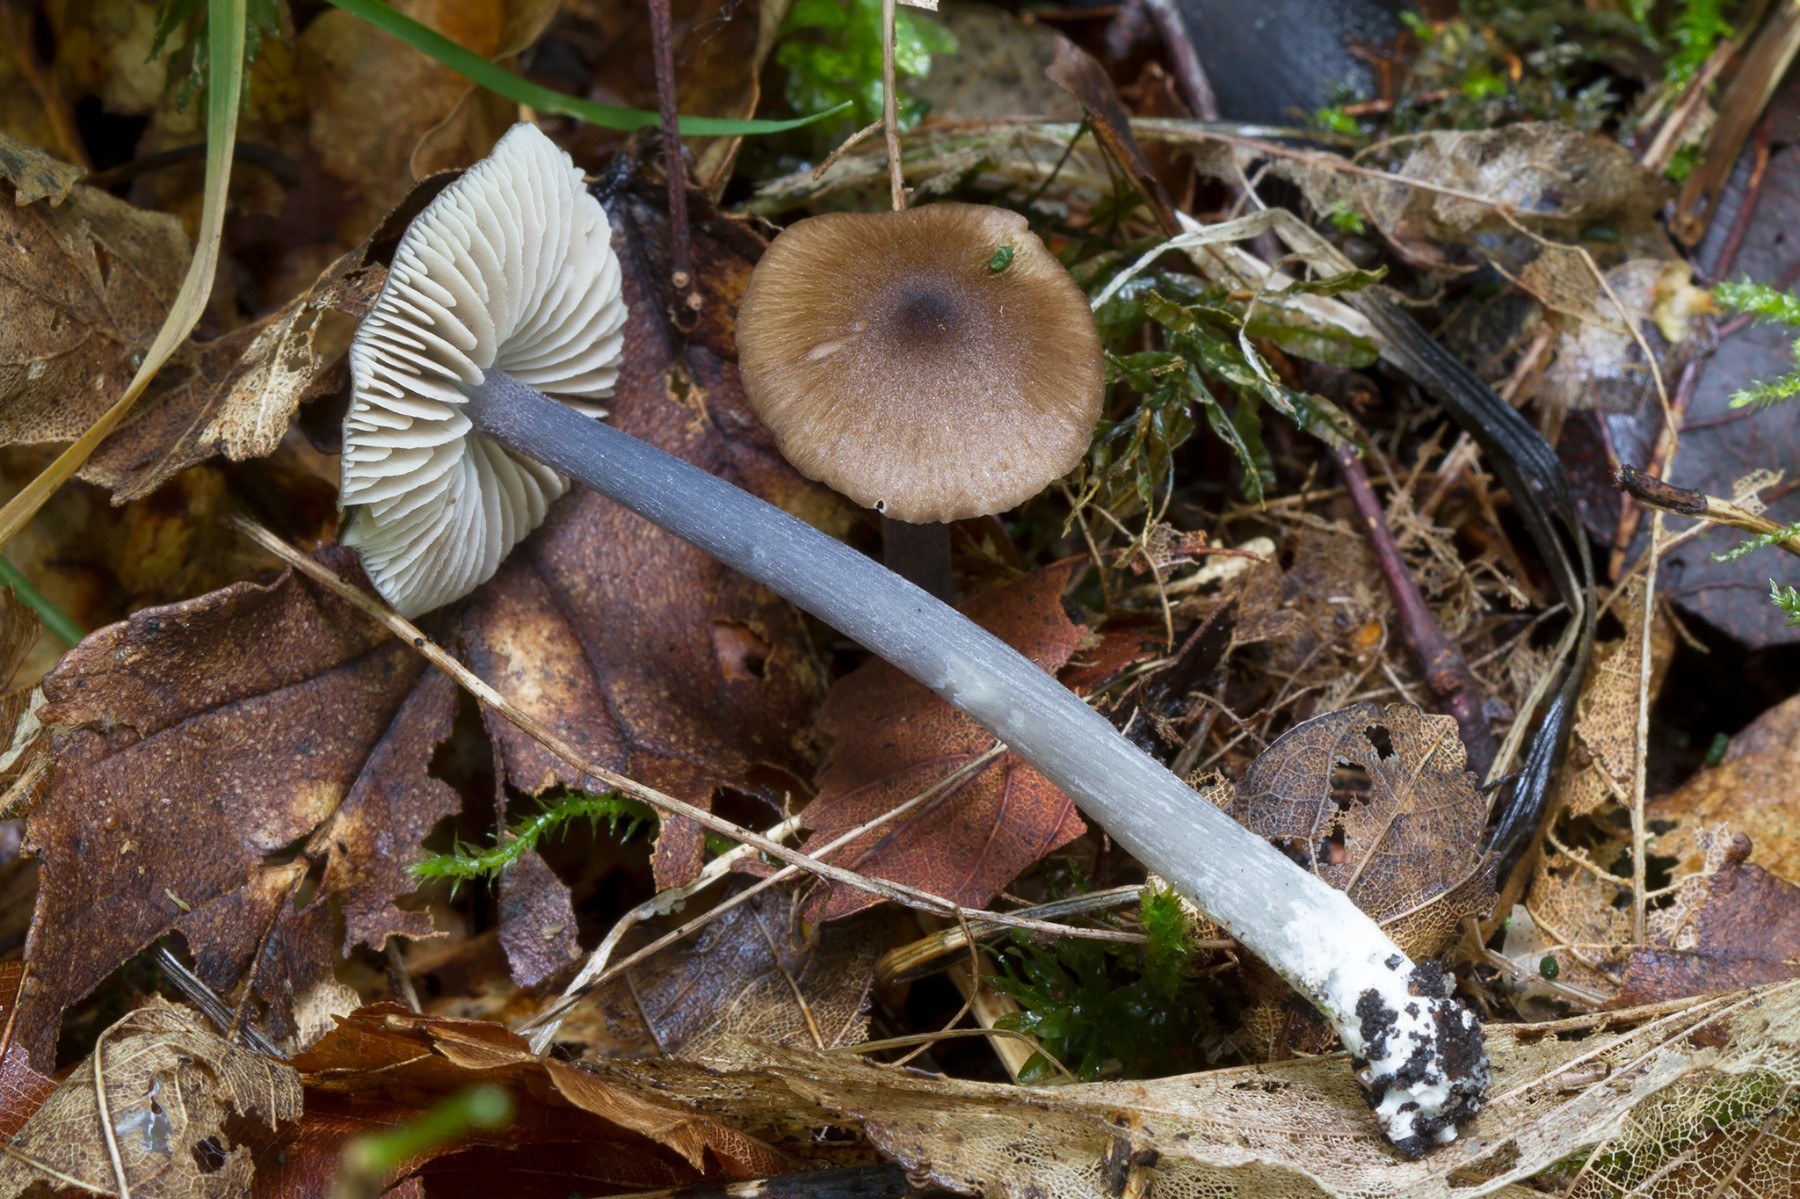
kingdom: Fungi
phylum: Basidiomycota
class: Agaricomycetes
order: Agaricales
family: Entolomataceae
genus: Entoloma
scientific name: Entoloma indikon
